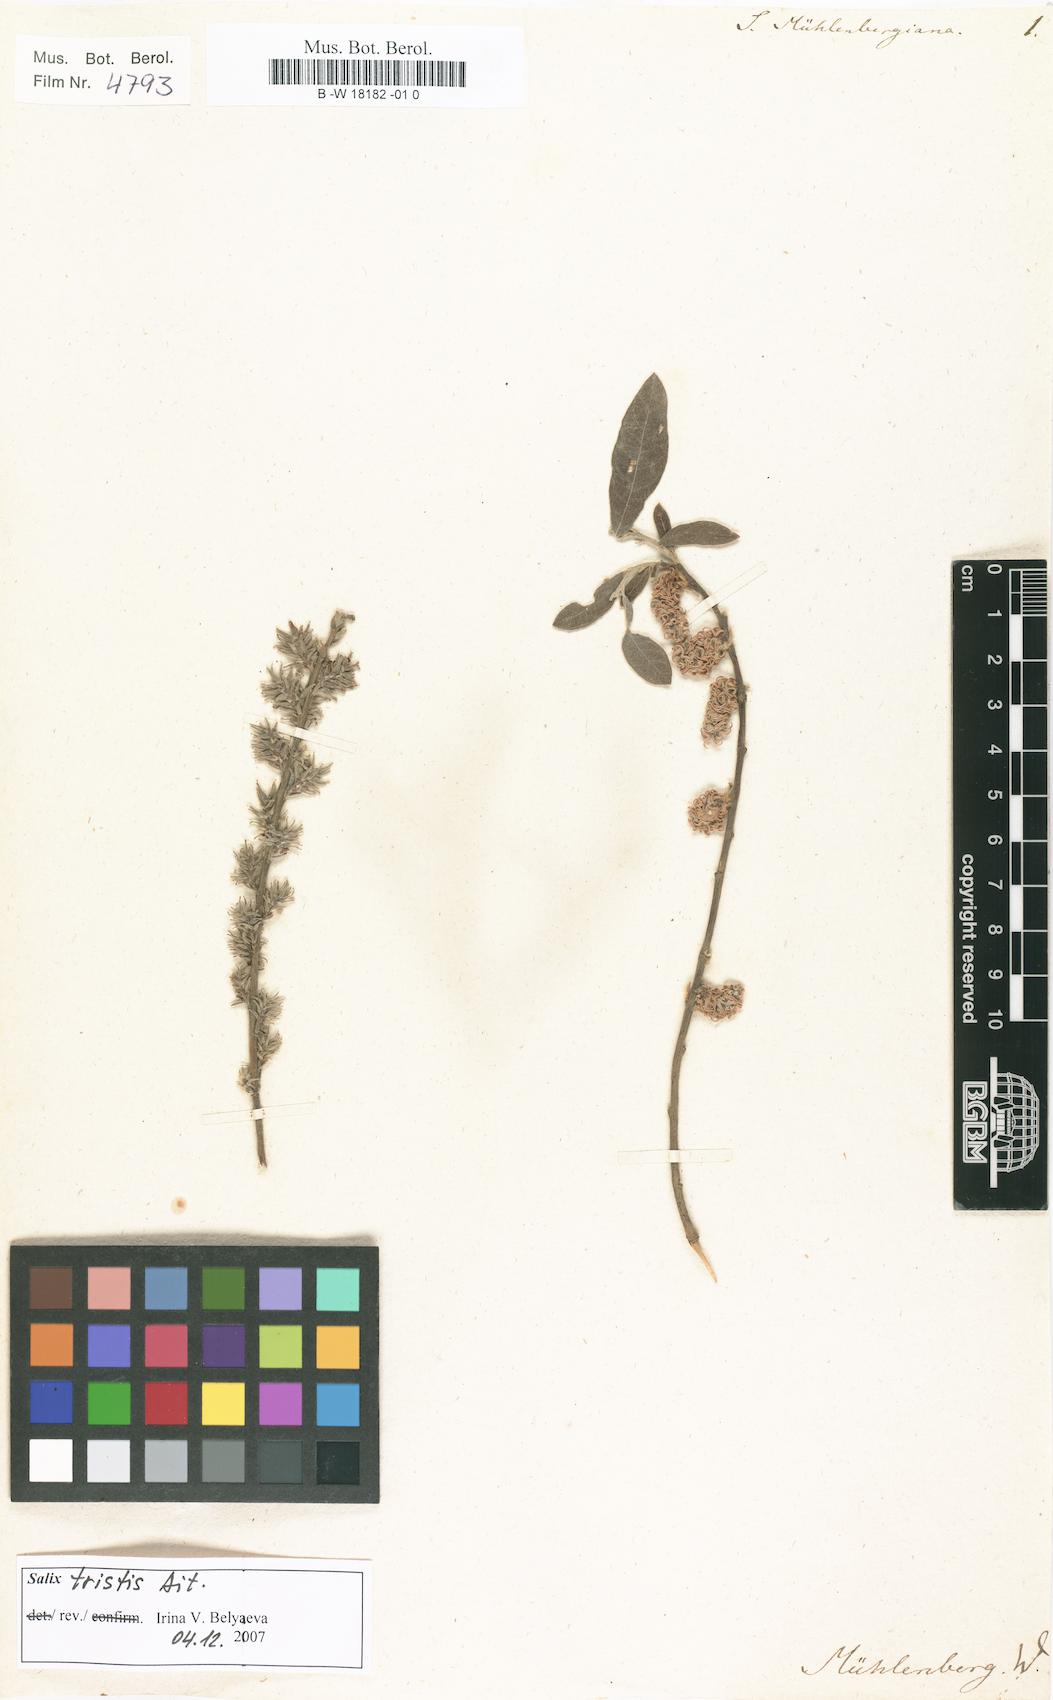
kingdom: Plantae
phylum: Tracheophyta
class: Magnoliopsida
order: Malpighiales
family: Salicaceae
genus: Salix
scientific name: Salix humilis
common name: Prairie willow
